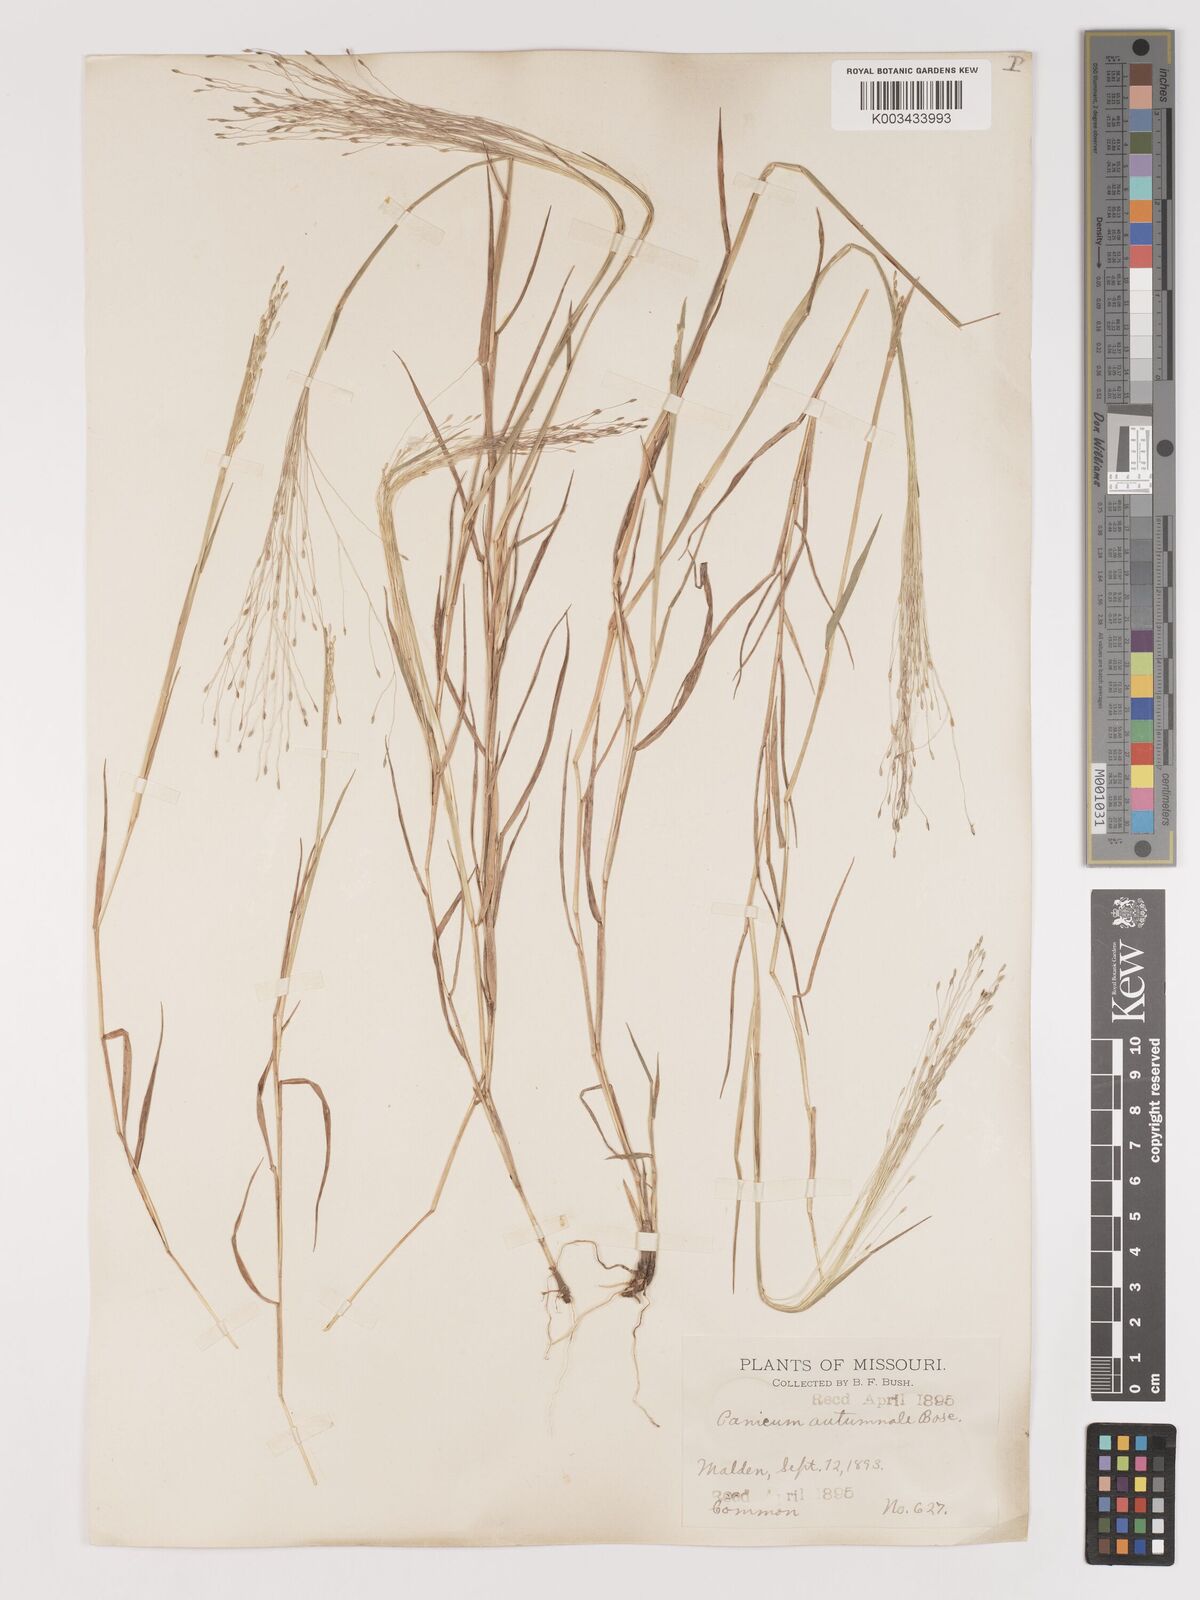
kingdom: Plantae
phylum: Tracheophyta
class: Liliopsida
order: Poales
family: Poaceae
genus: Digitaria
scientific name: Digitaria
